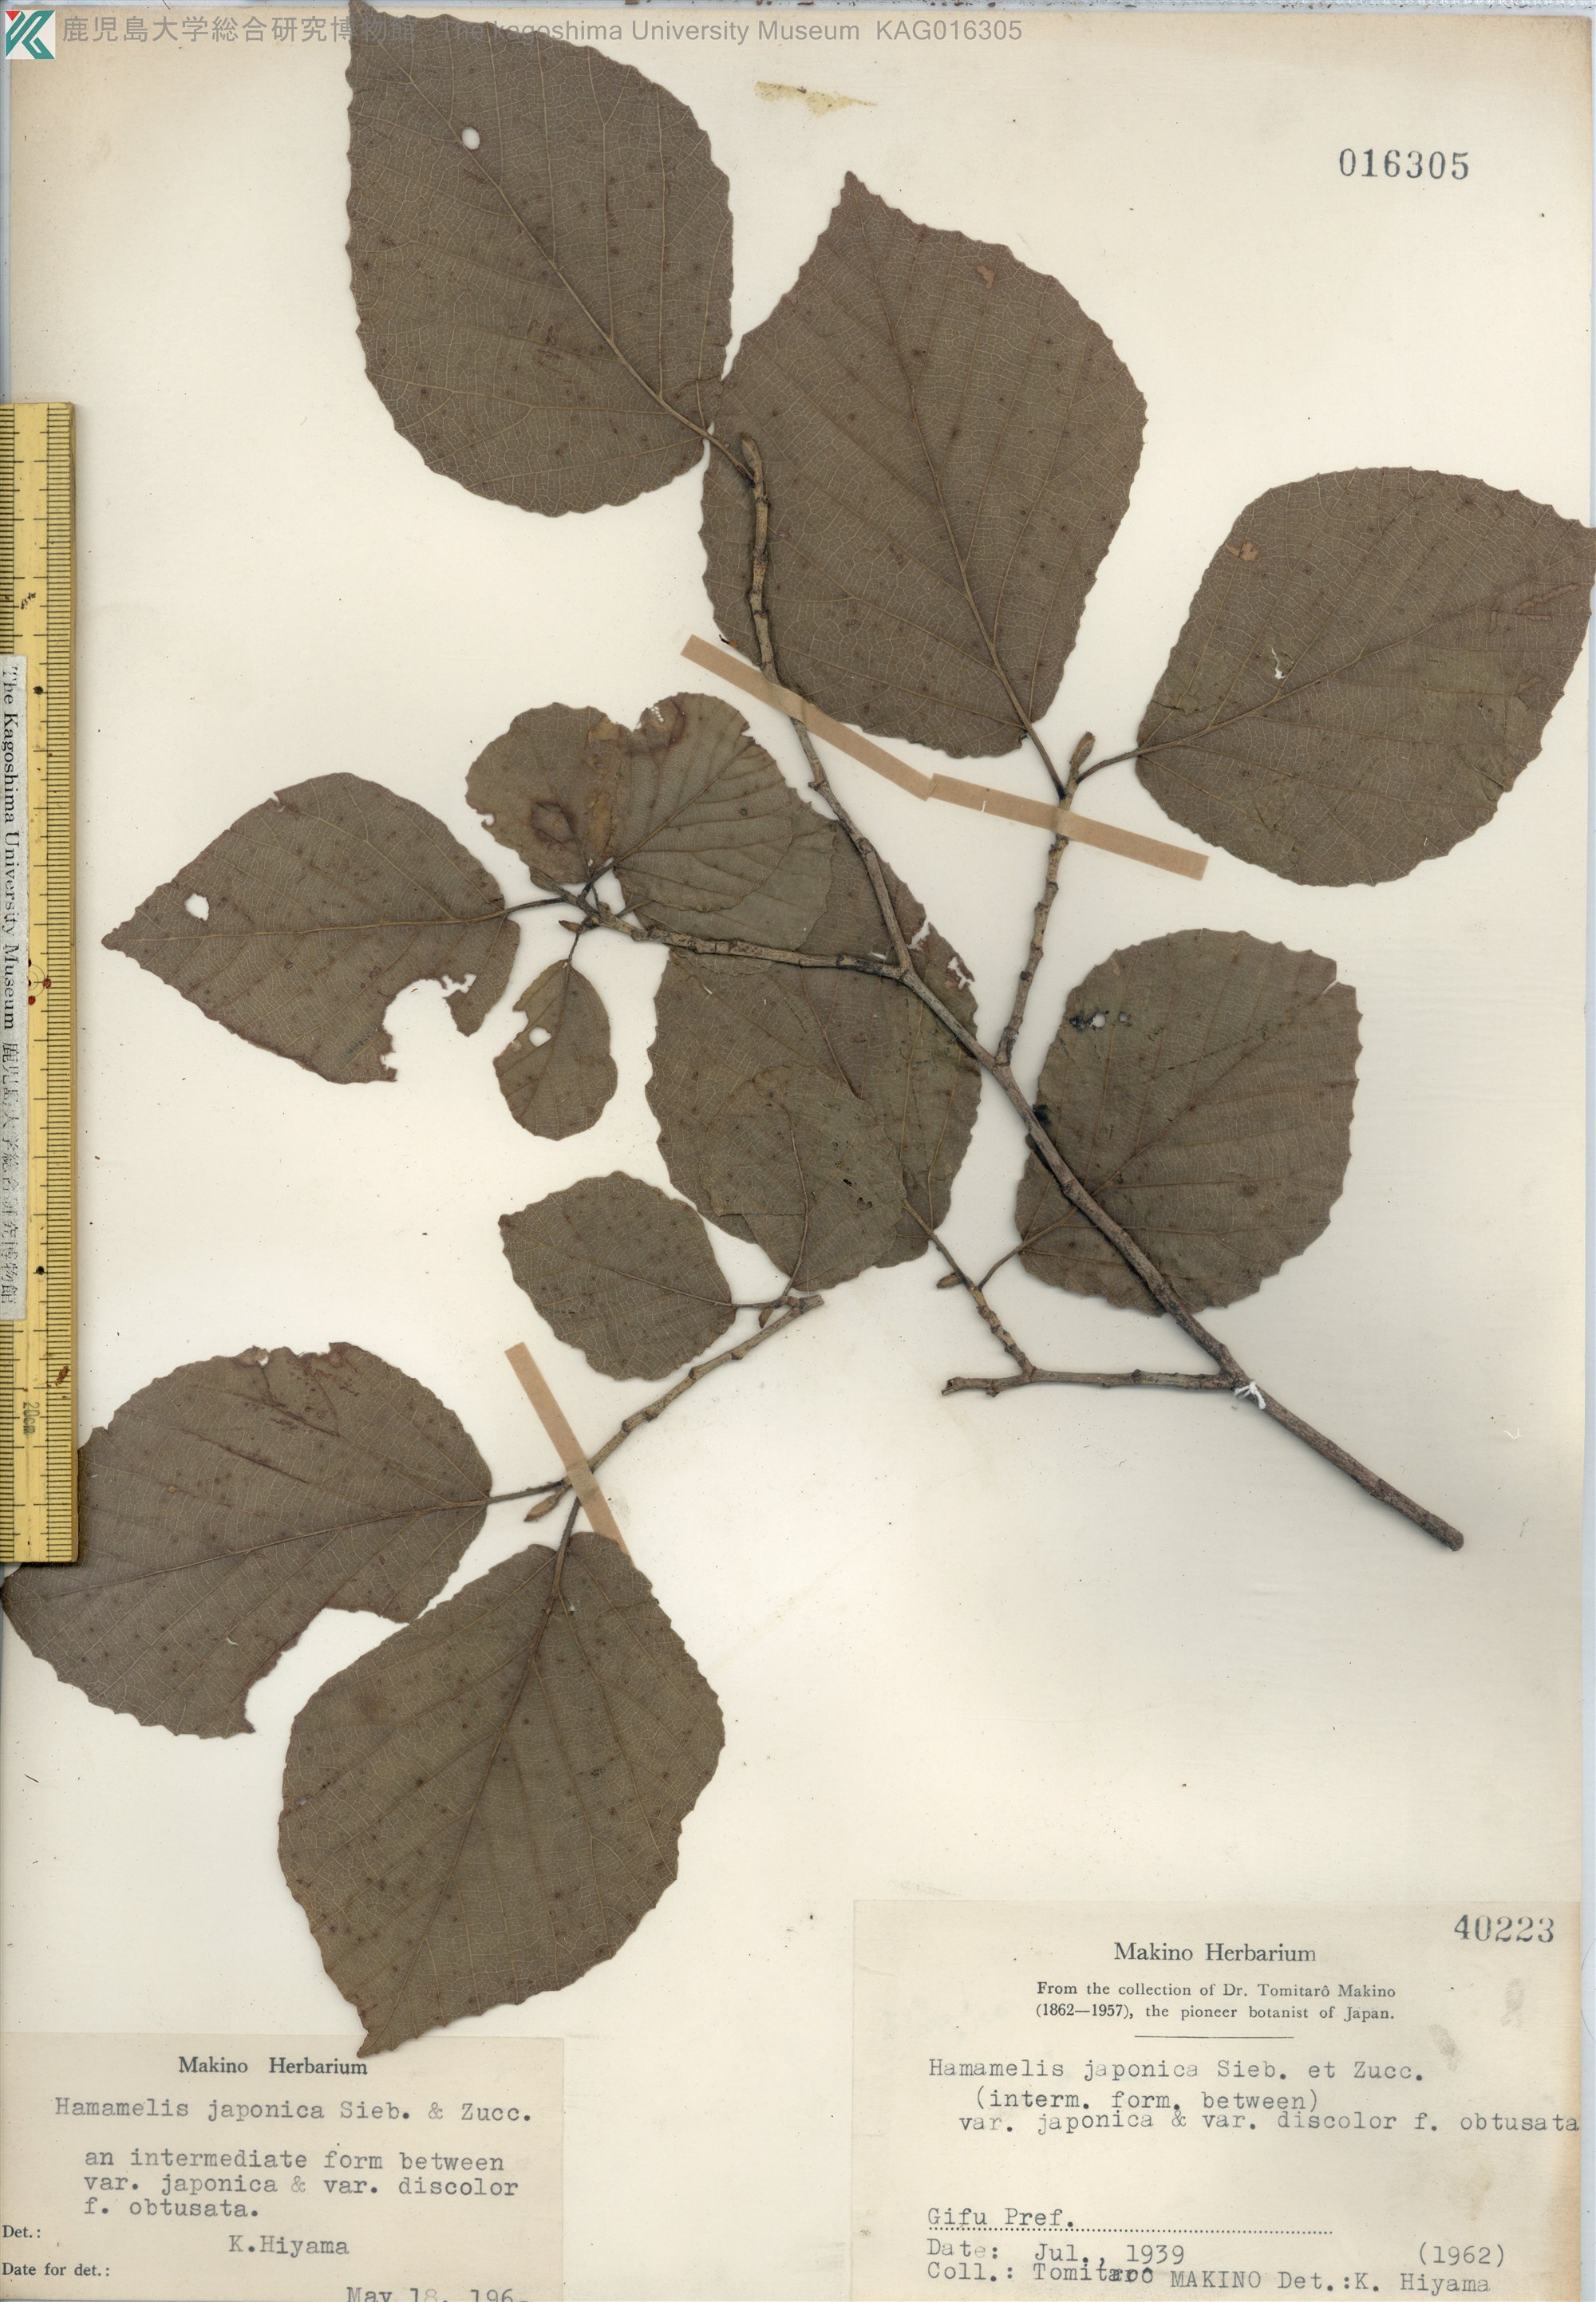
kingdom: Plantae
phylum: Tracheophyta
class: Magnoliopsida
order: Saxifragales
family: Hamamelidaceae
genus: Hamamelis
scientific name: Hamamelis japonica
